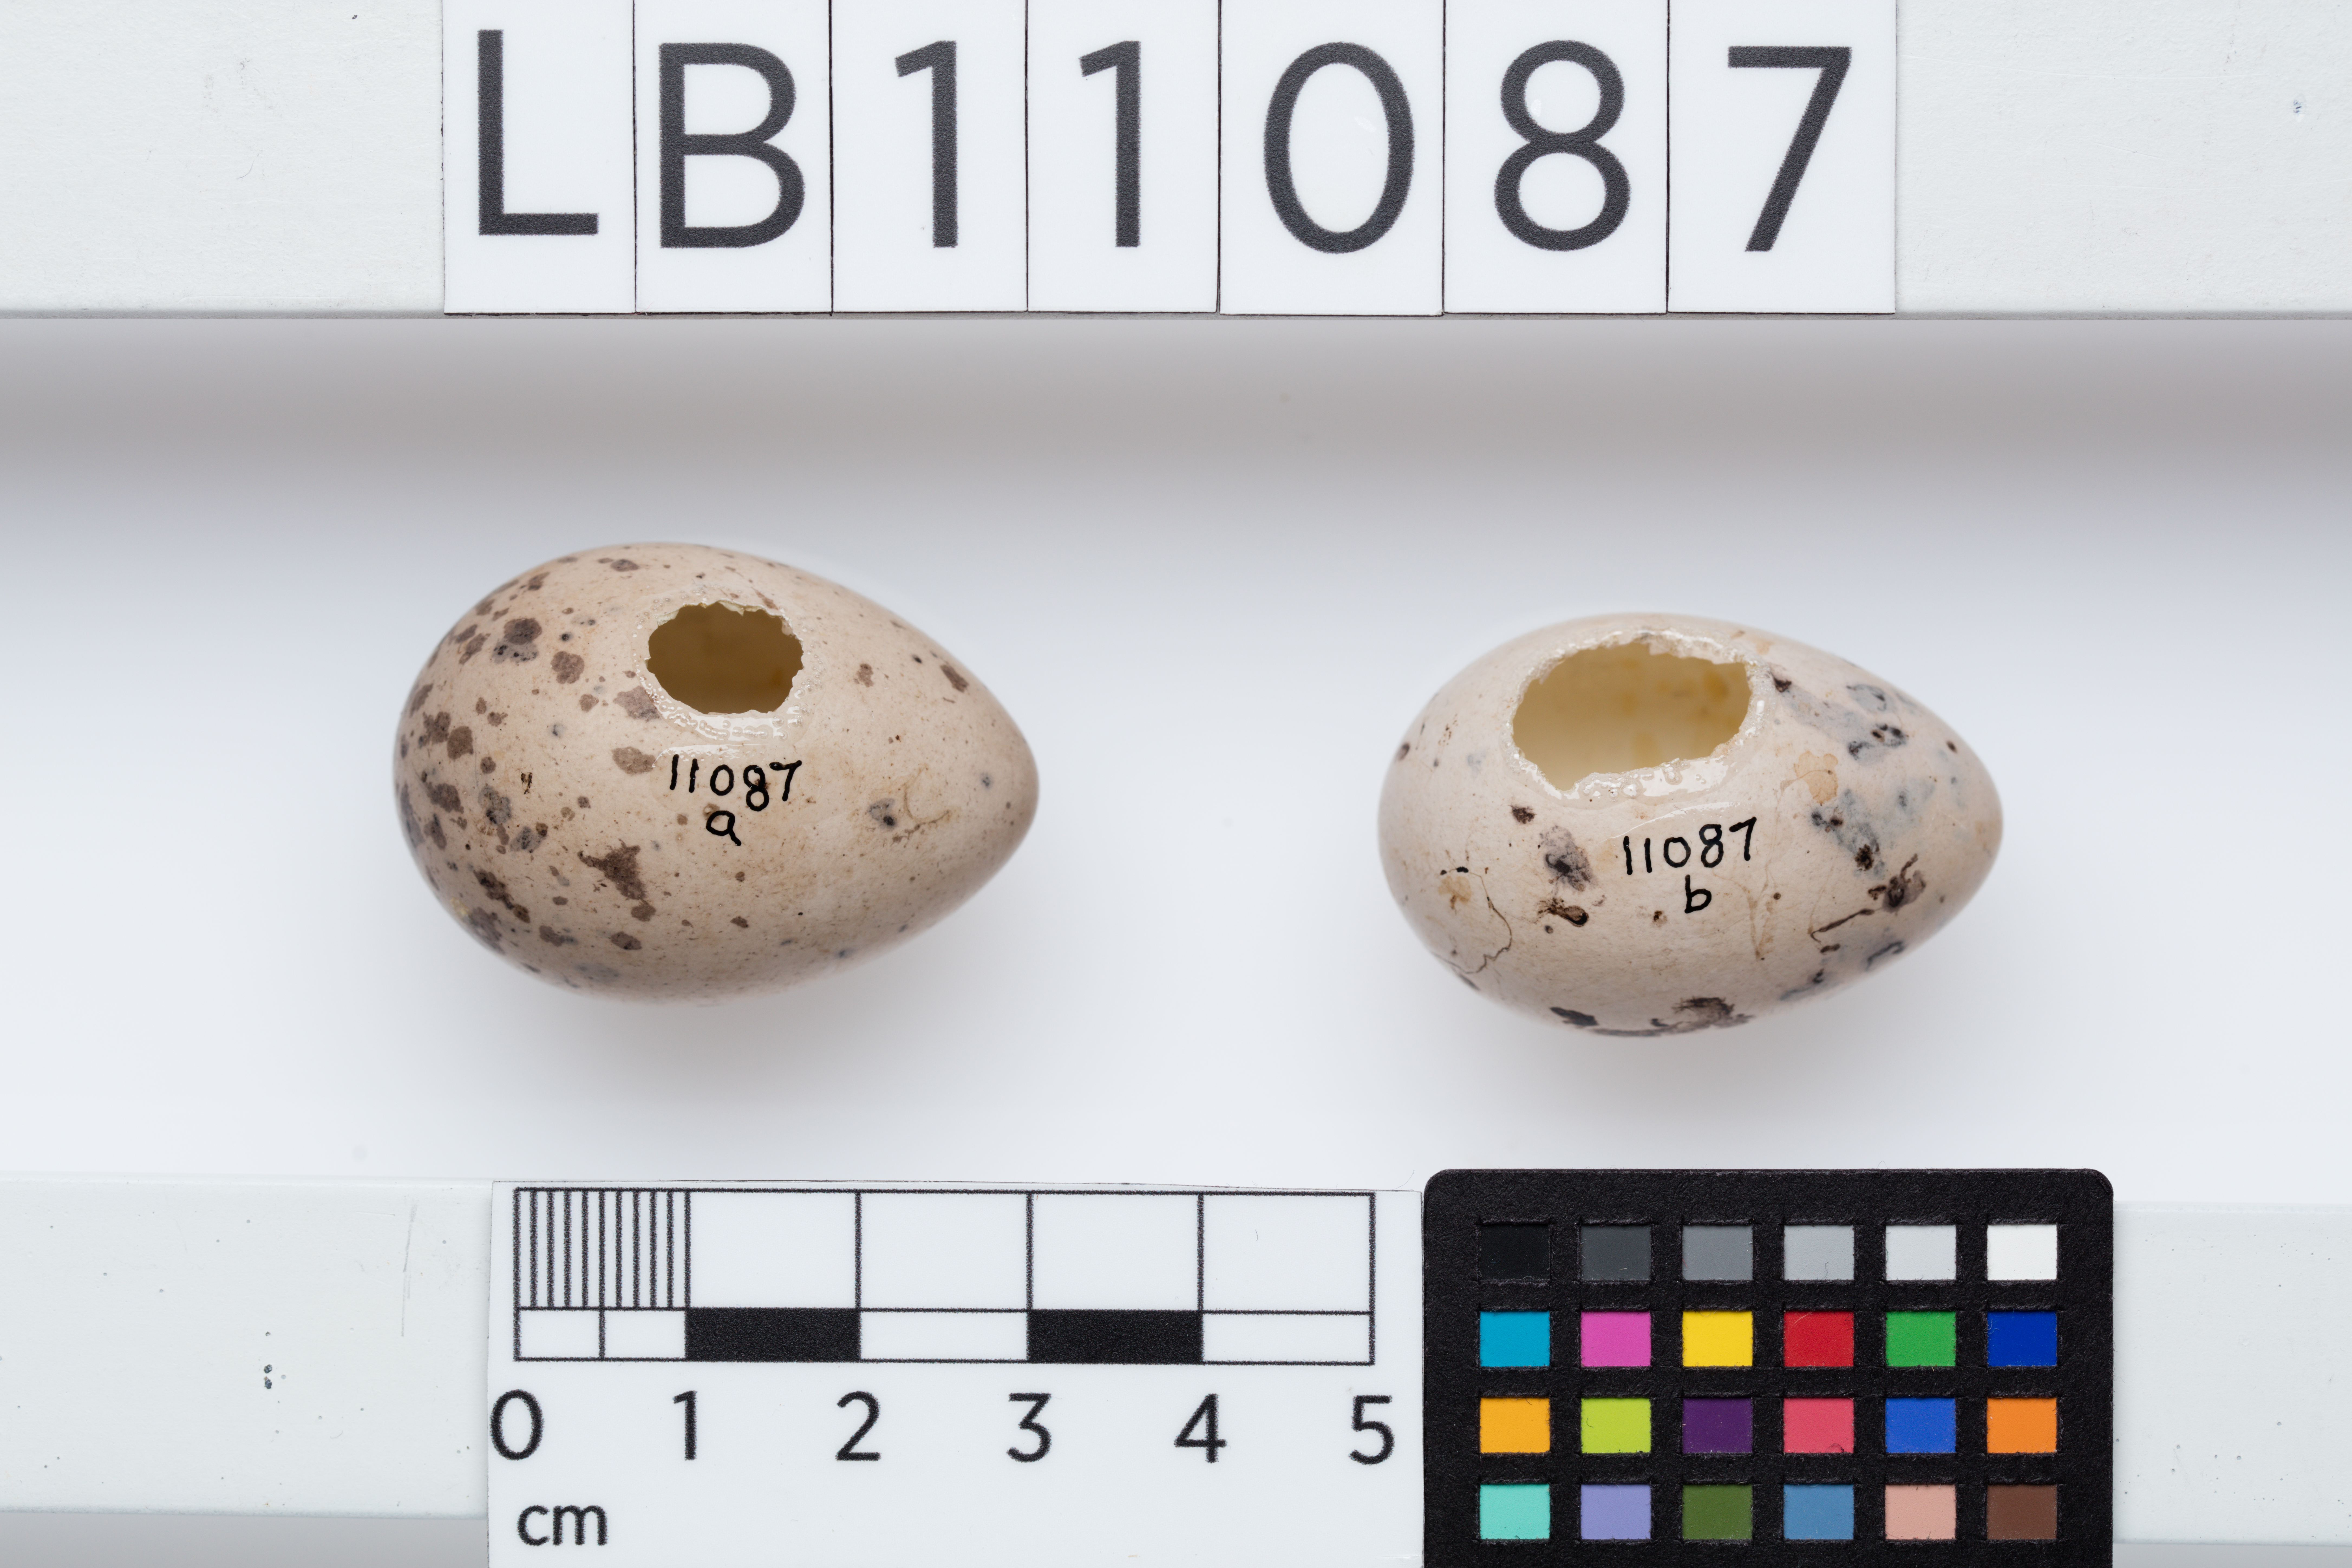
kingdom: Animalia
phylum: Chordata
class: Aves
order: Passeriformes
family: Callaeatidae
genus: Callaeas
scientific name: Callaeas cinereus
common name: South island kokako
